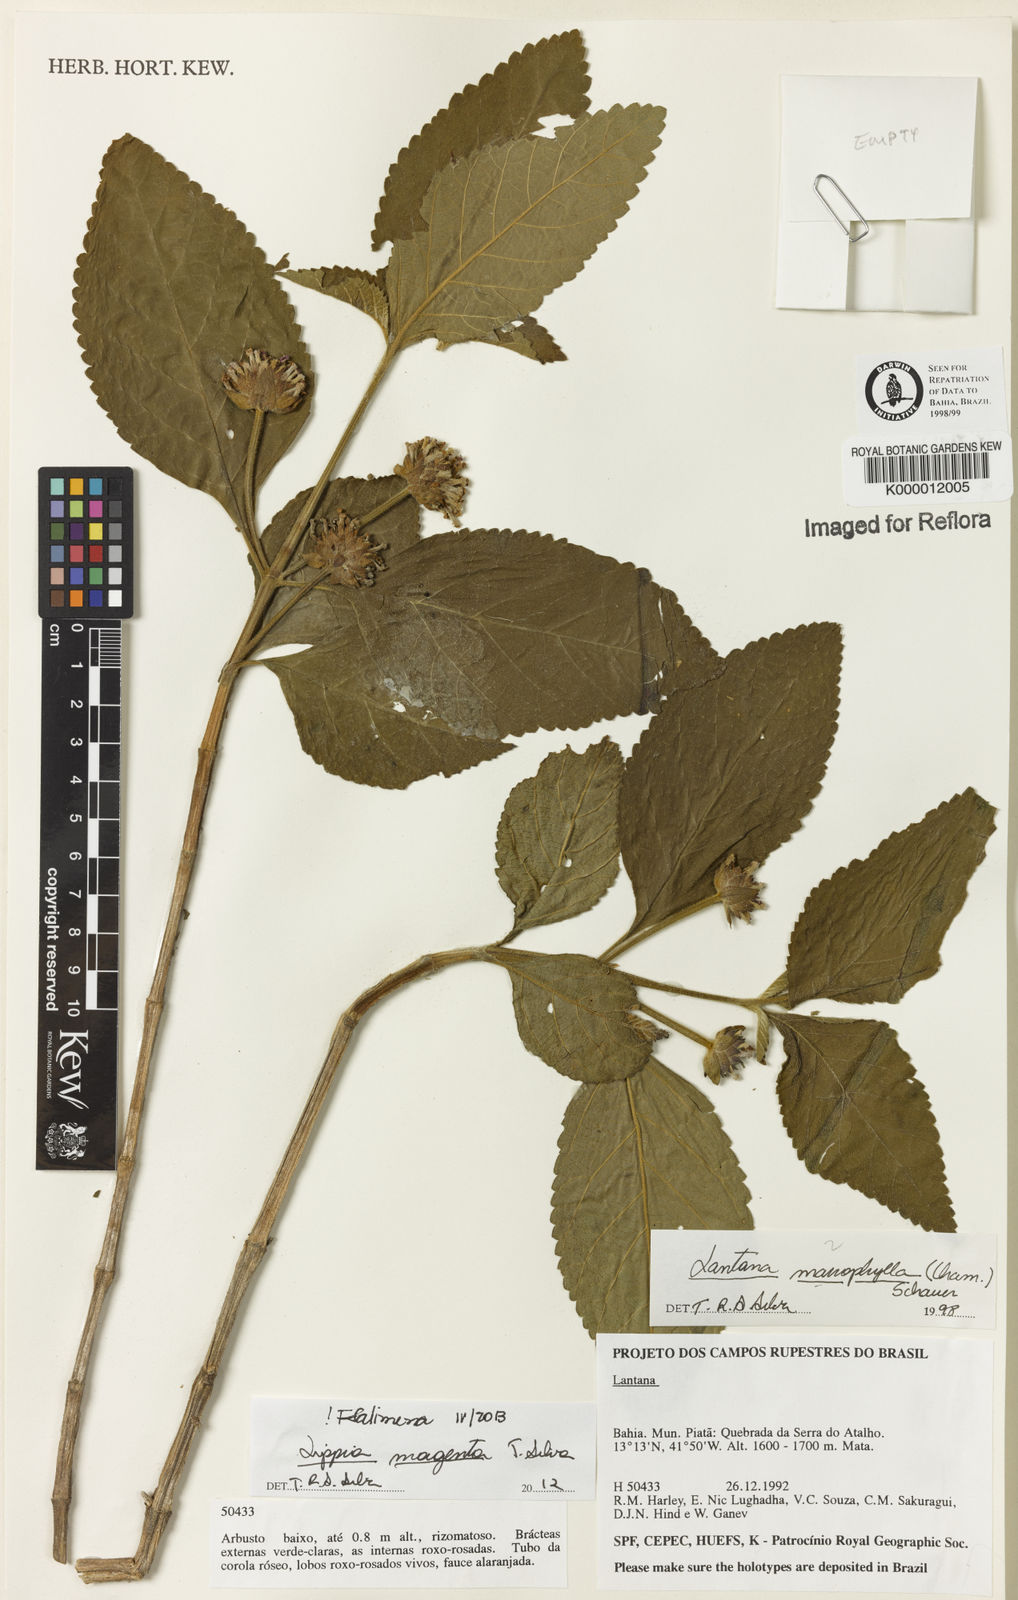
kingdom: Plantae
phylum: Tracheophyta
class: Magnoliopsida
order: Lamiales
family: Verbenaceae
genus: Lippia
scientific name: Lippia
